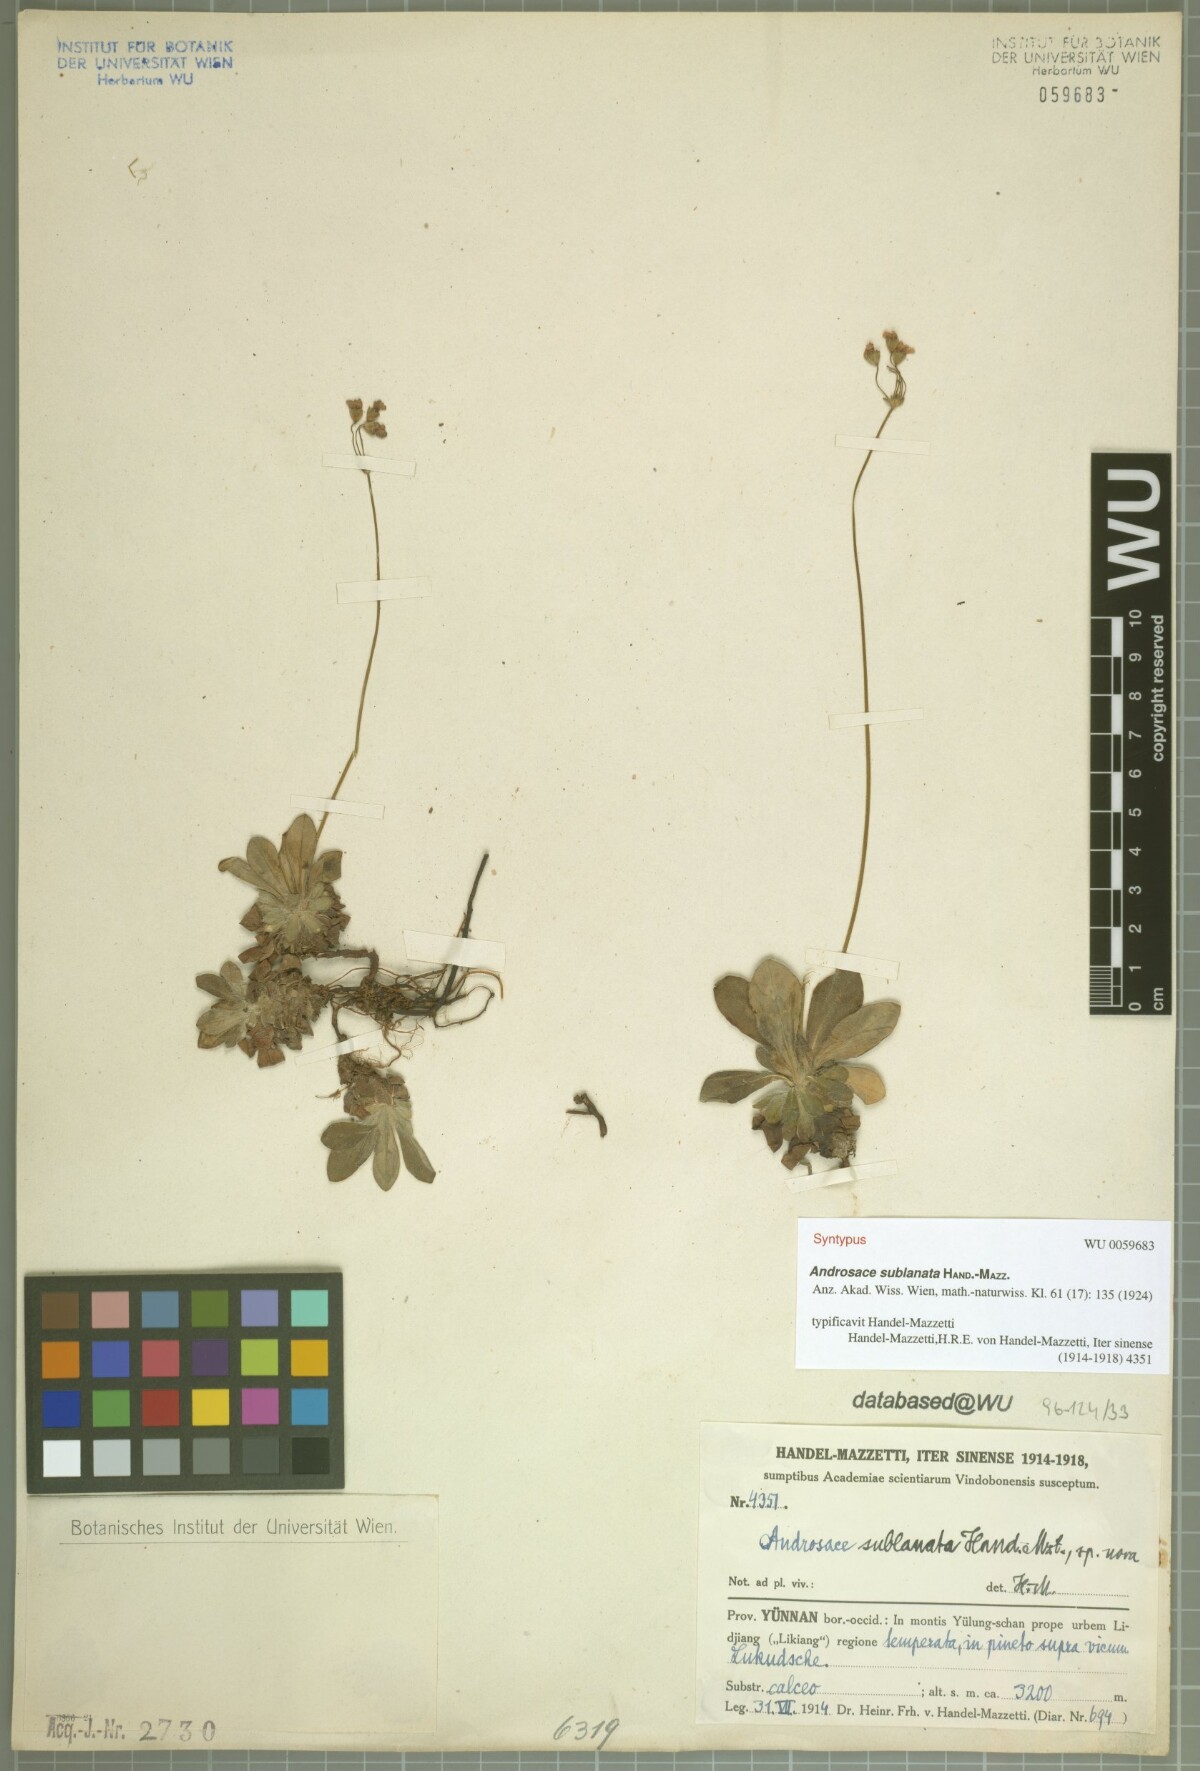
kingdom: Plantae
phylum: Tracheophyta
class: Magnoliopsida
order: Ericales
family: Primulaceae
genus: Androsace
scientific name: Androsace sublanata
